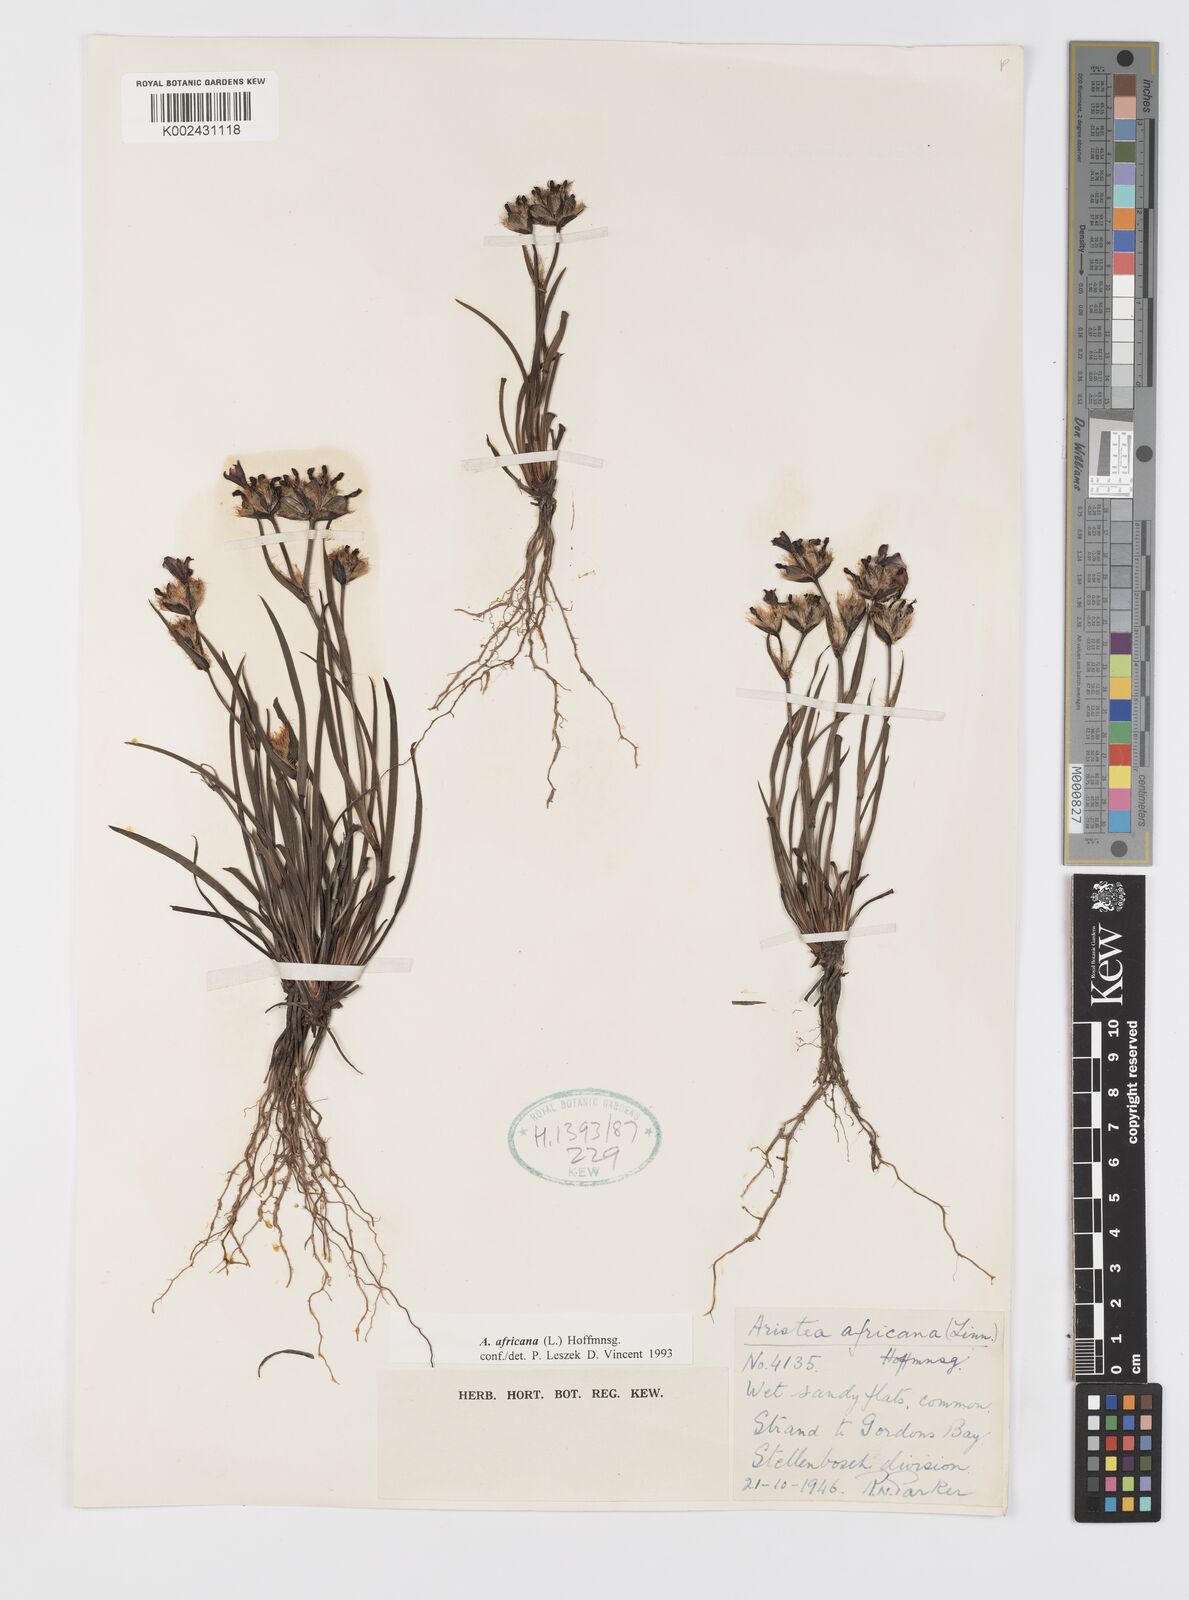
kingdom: Plantae
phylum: Tracheophyta
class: Liliopsida
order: Asparagales
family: Iridaceae
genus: Aristea
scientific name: Aristea africana
